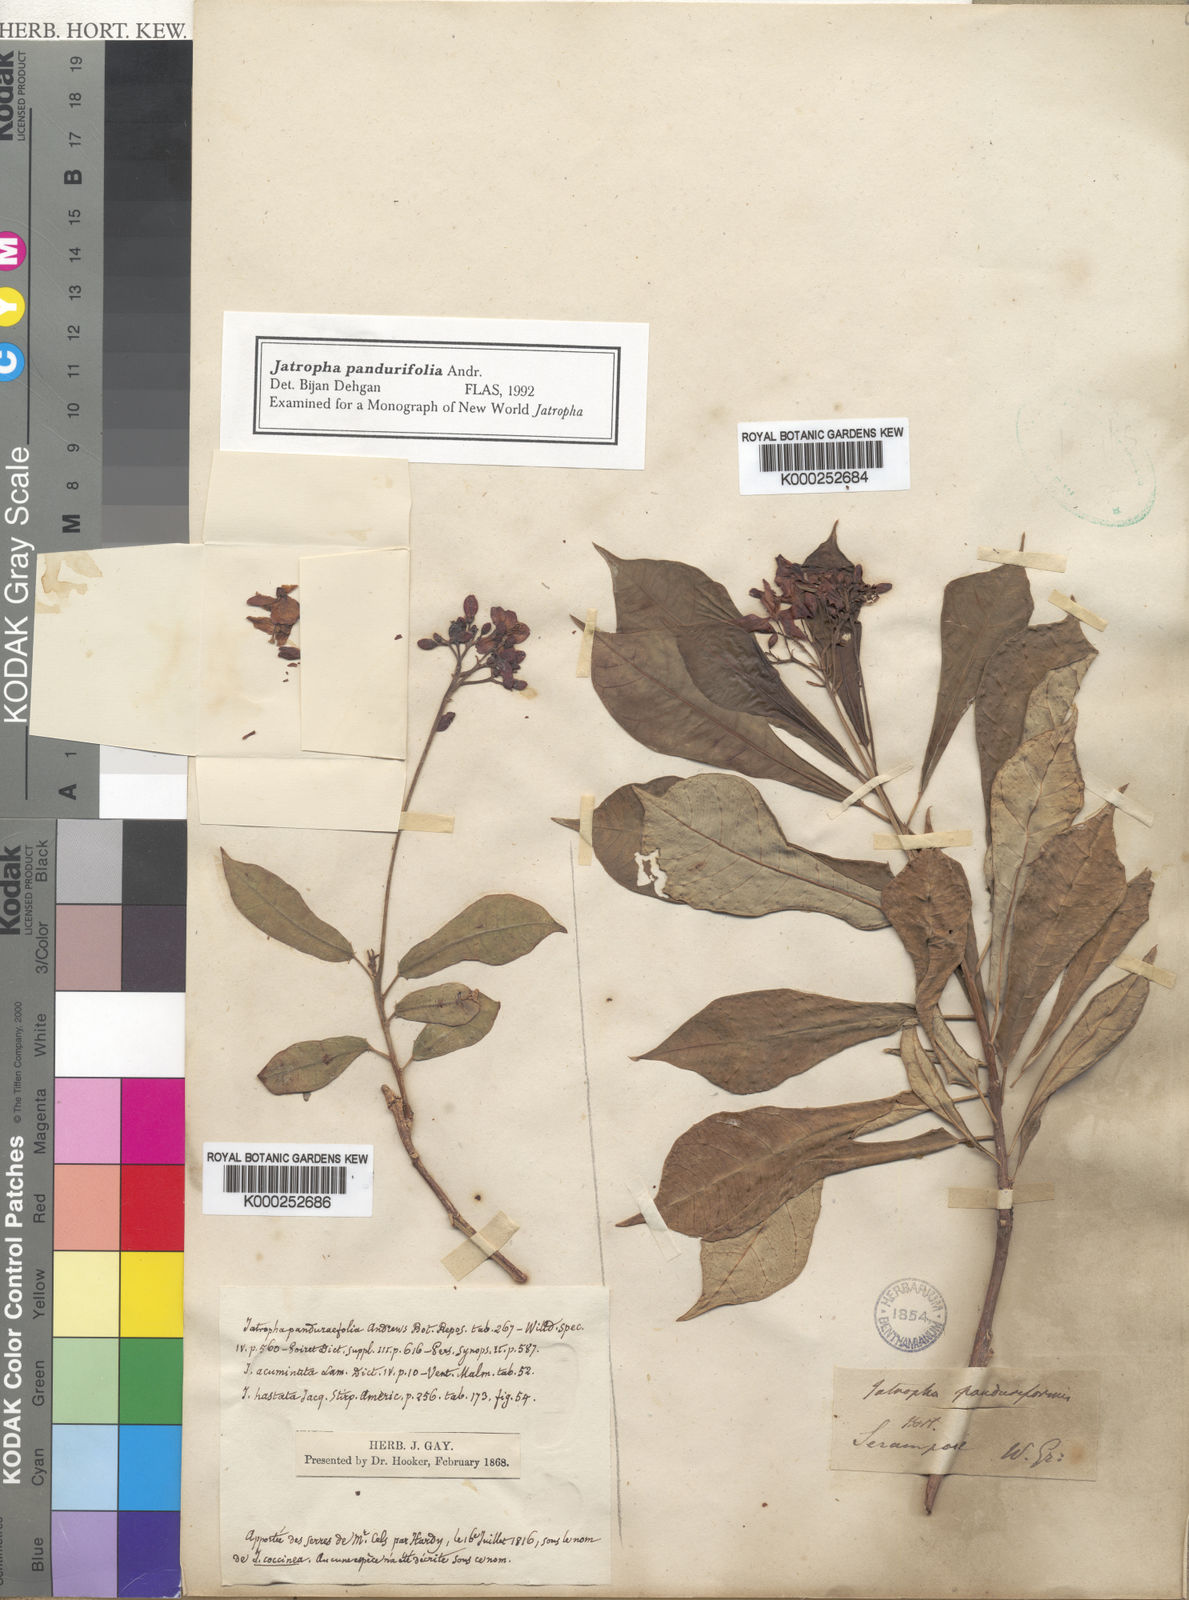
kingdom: Plantae
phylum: Tracheophyta
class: Magnoliopsida
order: Malpighiales
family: Euphorbiaceae
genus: Jatropha
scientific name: Jatropha integerrima
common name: Peregrina
